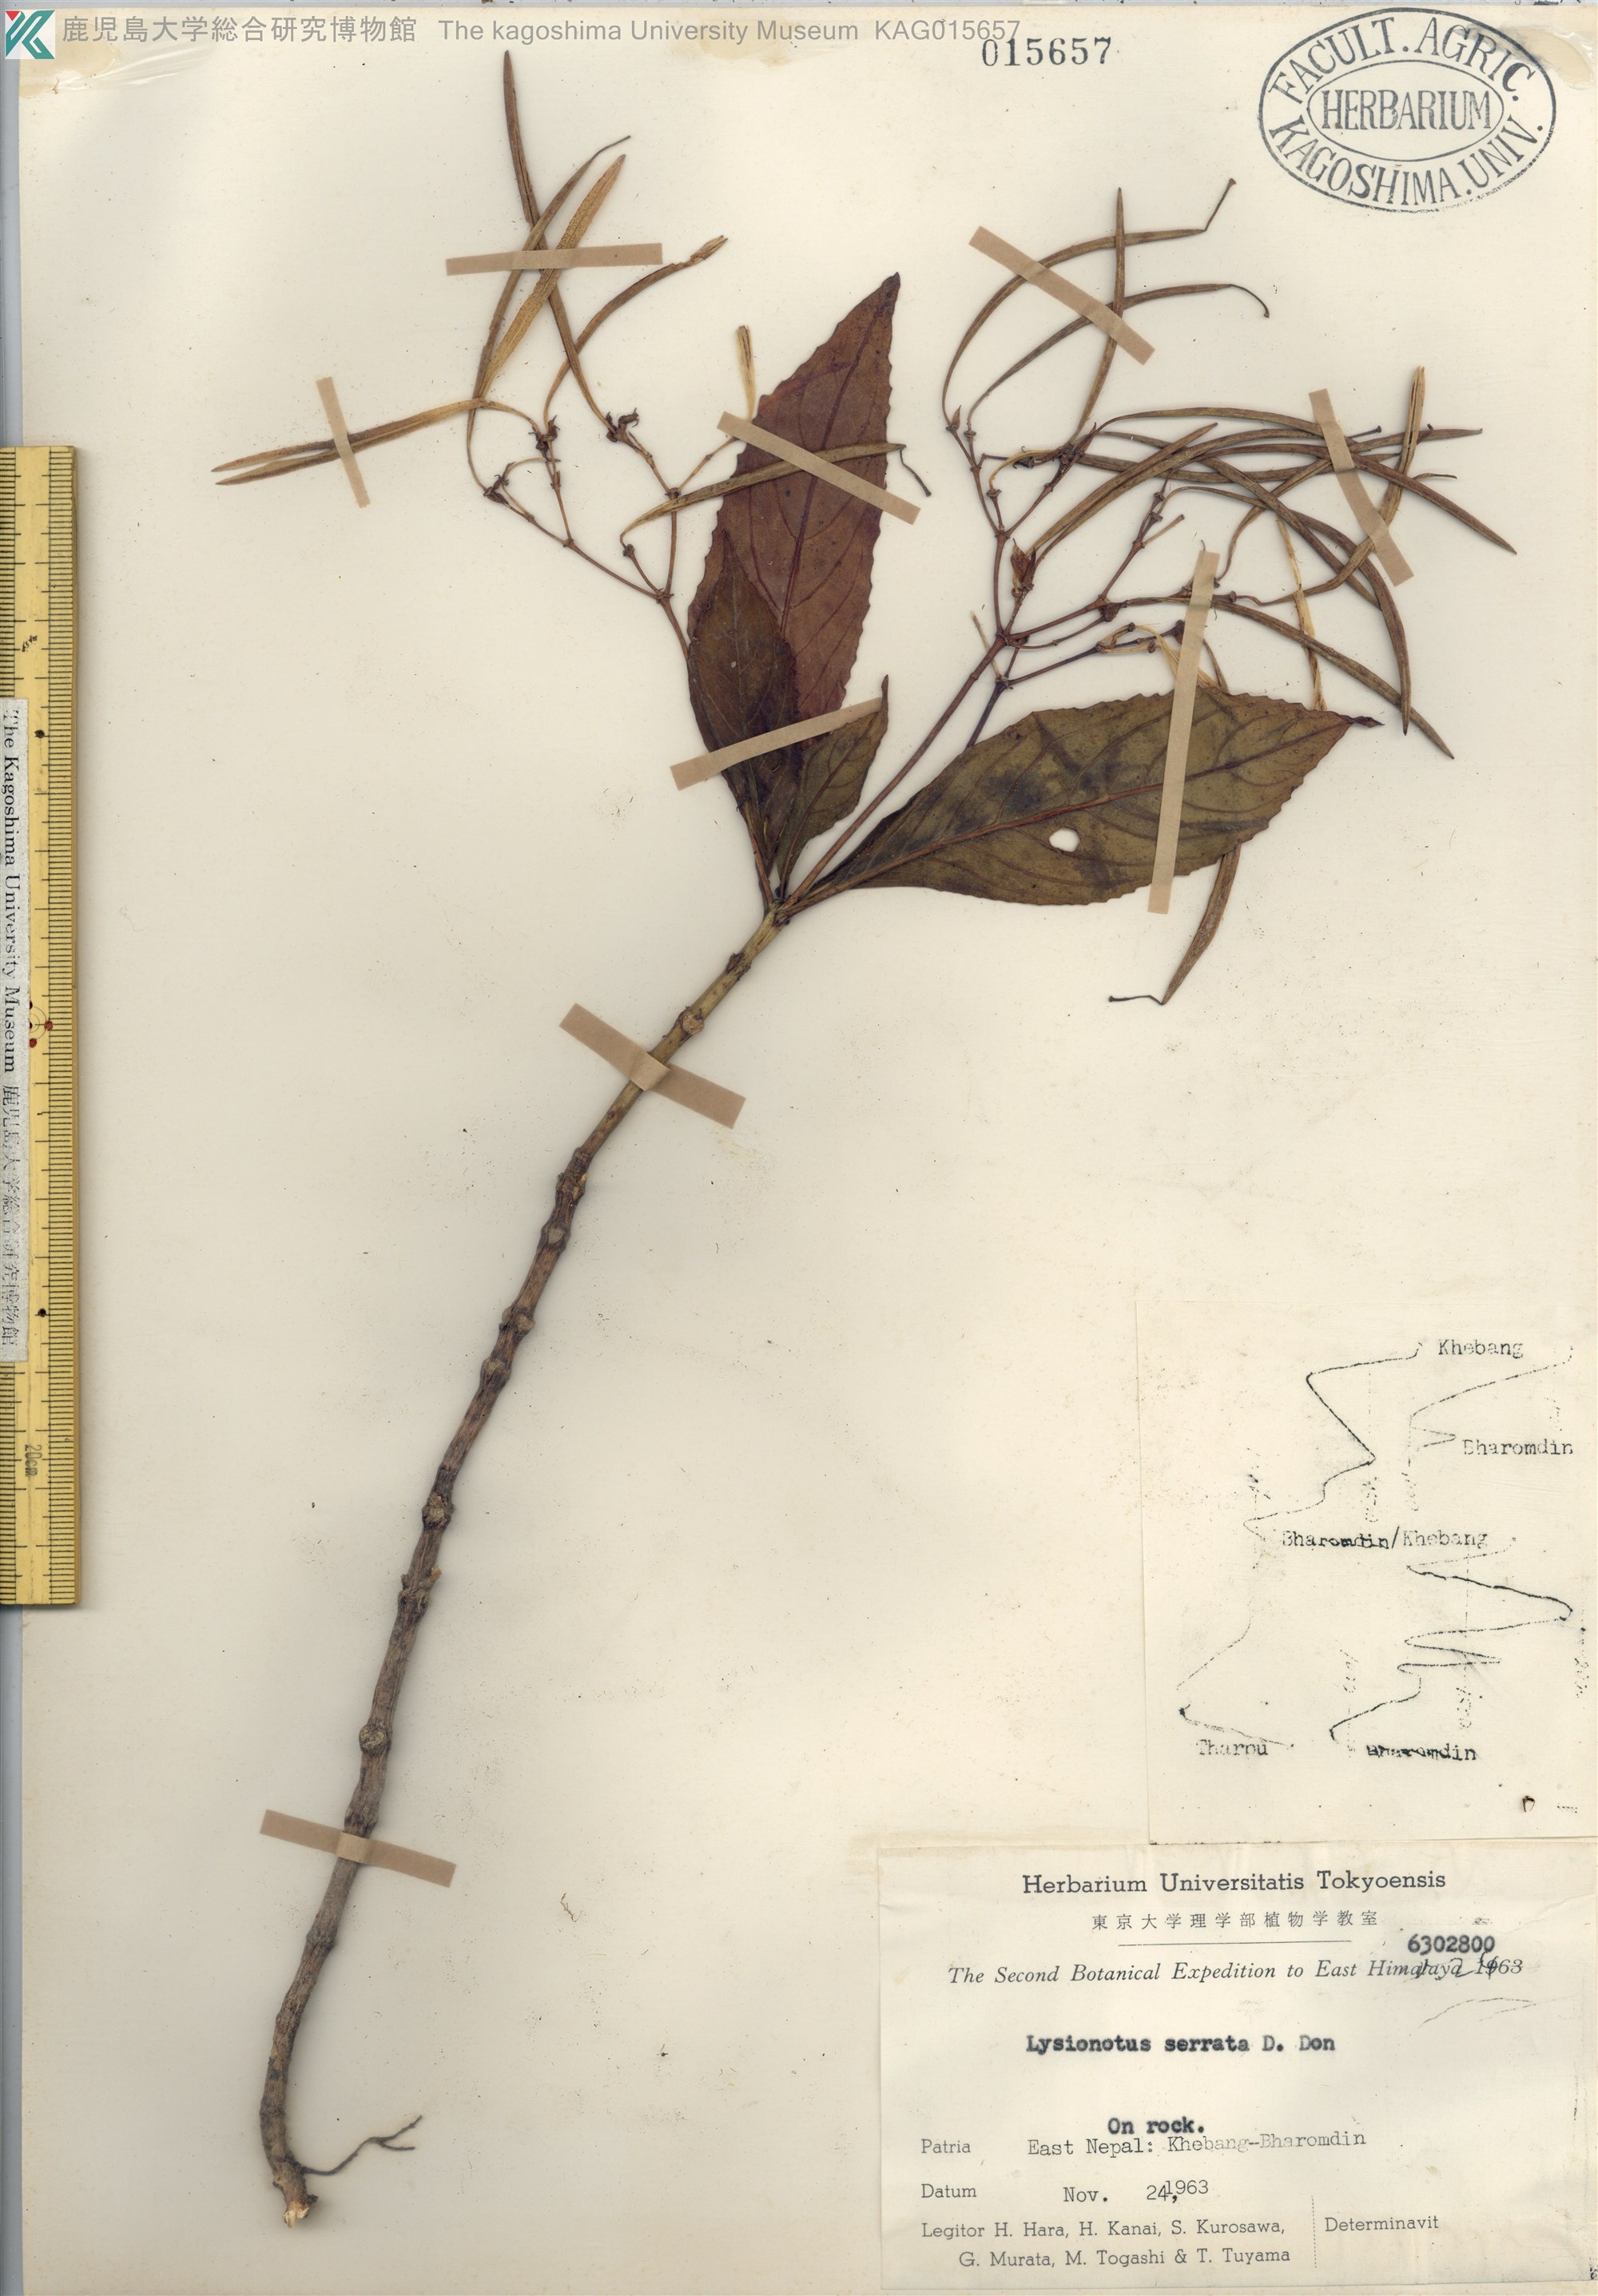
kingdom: Plantae
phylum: Tracheophyta
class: Magnoliopsida
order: Lamiales
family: Gesneriaceae
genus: Lysionotus
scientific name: Lysionotus serratus
